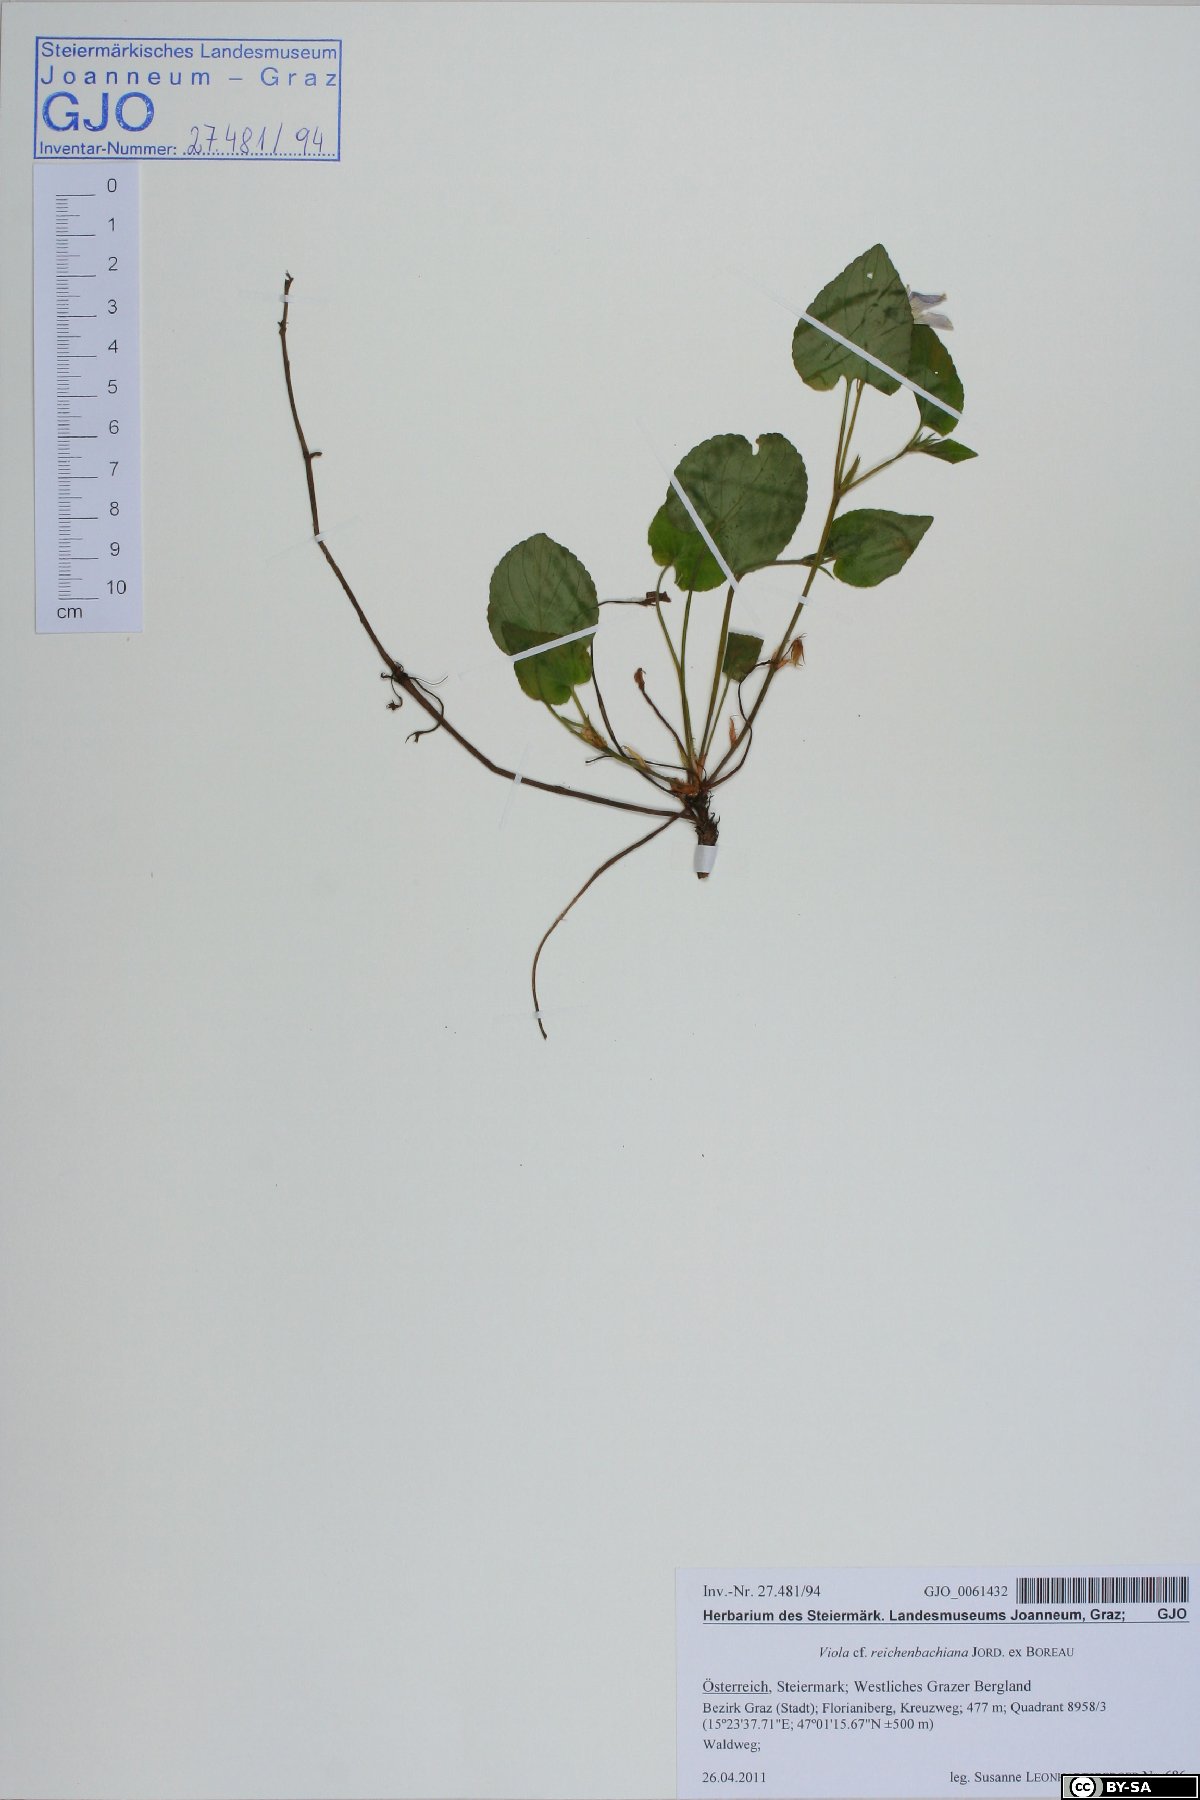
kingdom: Plantae
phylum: Tracheophyta
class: Magnoliopsida
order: Malpighiales
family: Violaceae
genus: Viola
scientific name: Viola reichenbachiana
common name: Early dog-violet
